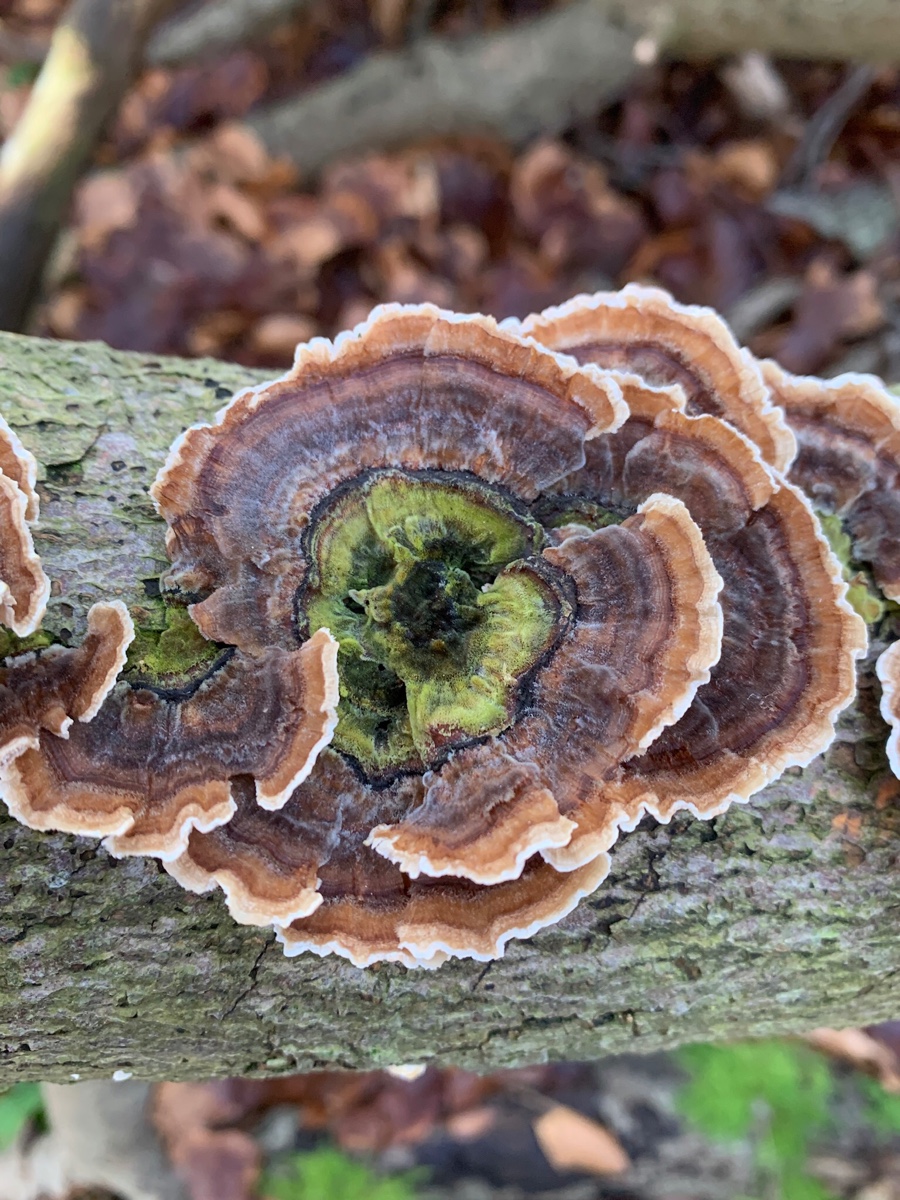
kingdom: Fungi
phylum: Basidiomycota
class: Agaricomycetes
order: Polyporales
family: Polyporaceae
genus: Trametes
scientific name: Trametes versicolor
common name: broget læderporesvamp
